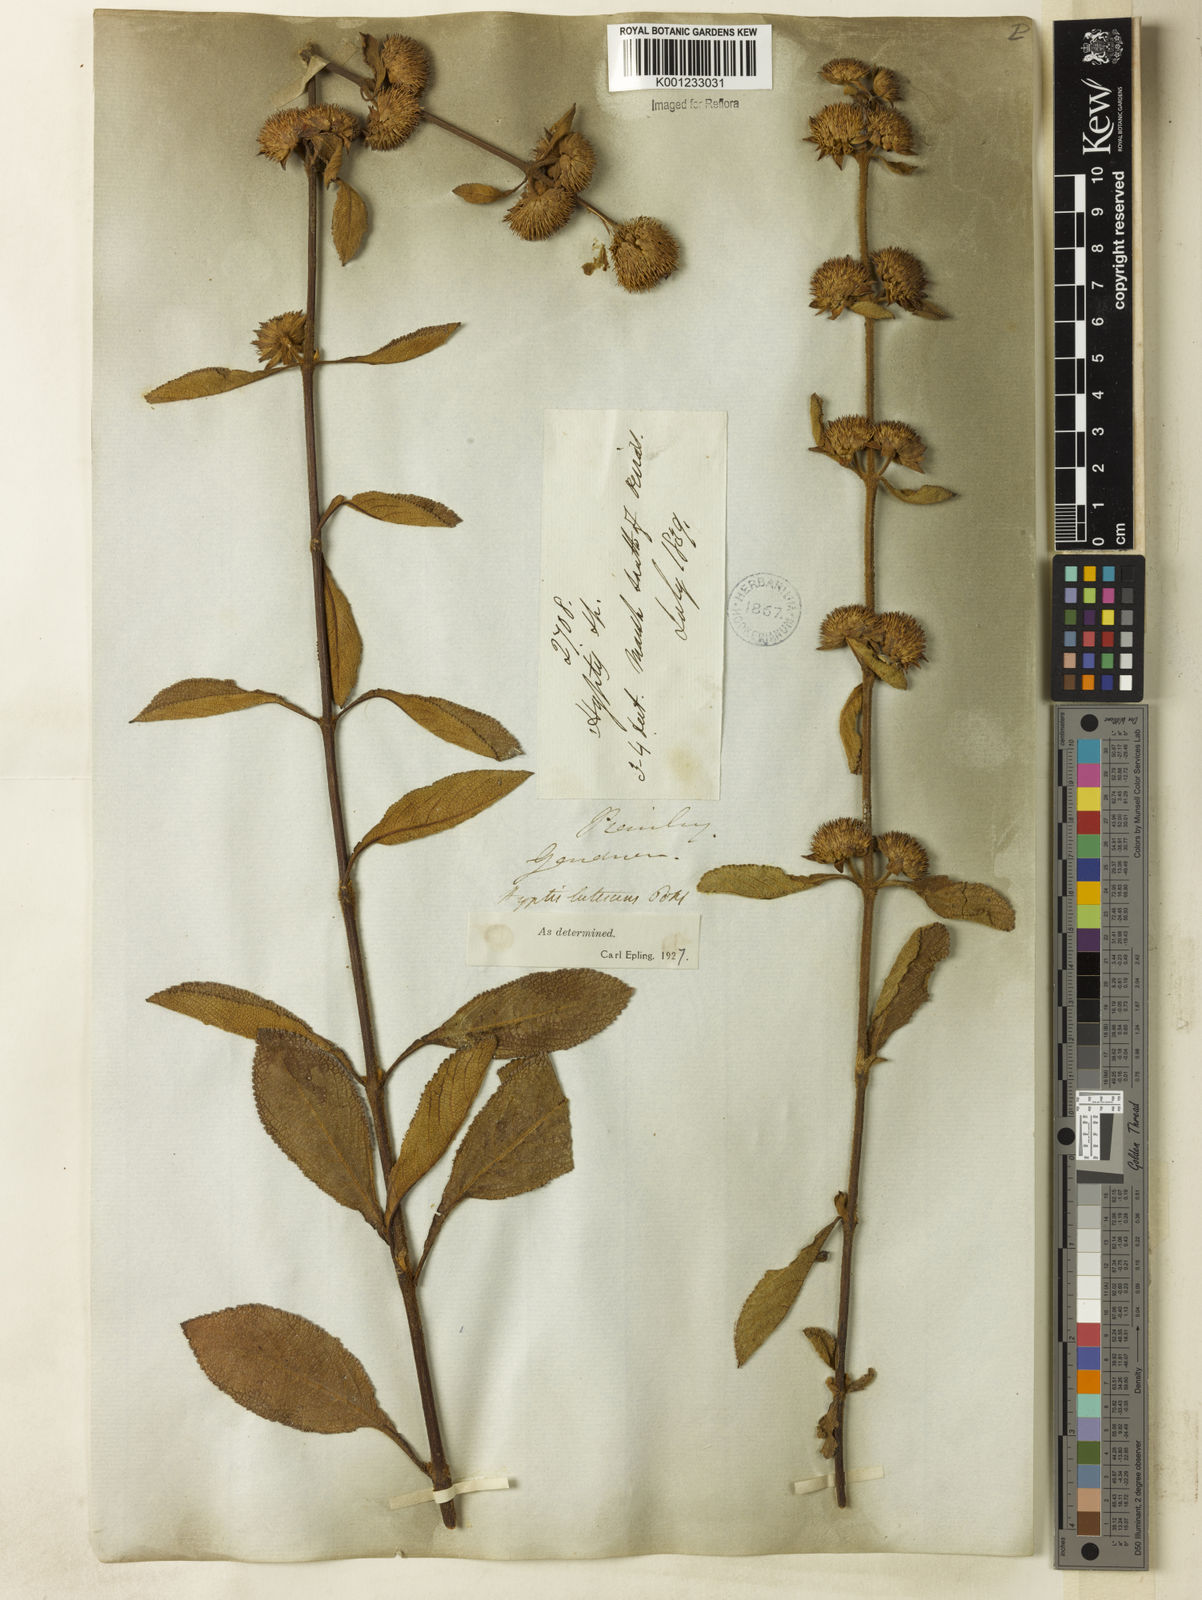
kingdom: Plantae
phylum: Tracheophyta
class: Magnoliopsida
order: Lamiales
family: Lamiaceae
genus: Hyptis
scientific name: Hyptis lutescens
